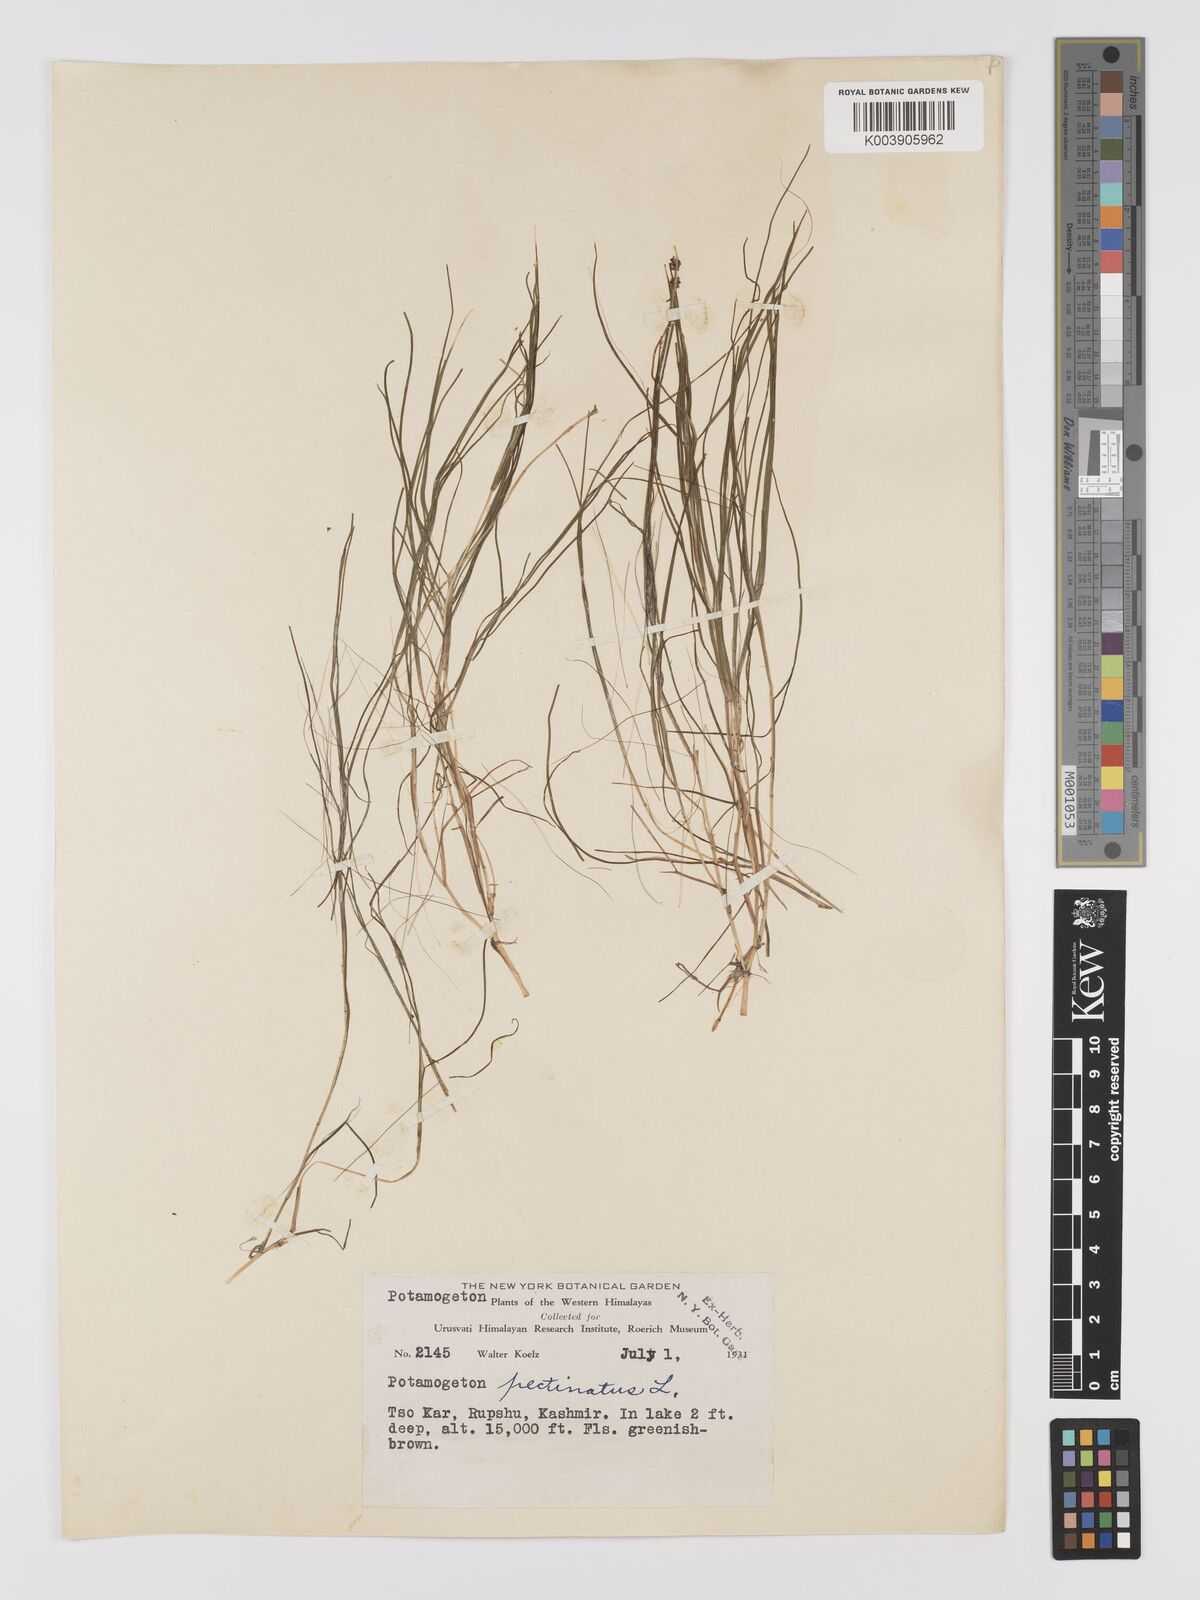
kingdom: Plantae
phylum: Tracheophyta
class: Liliopsida
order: Alismatales
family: Potamogetonaceae
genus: Potamogeton
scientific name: Potamogeton filiformis
